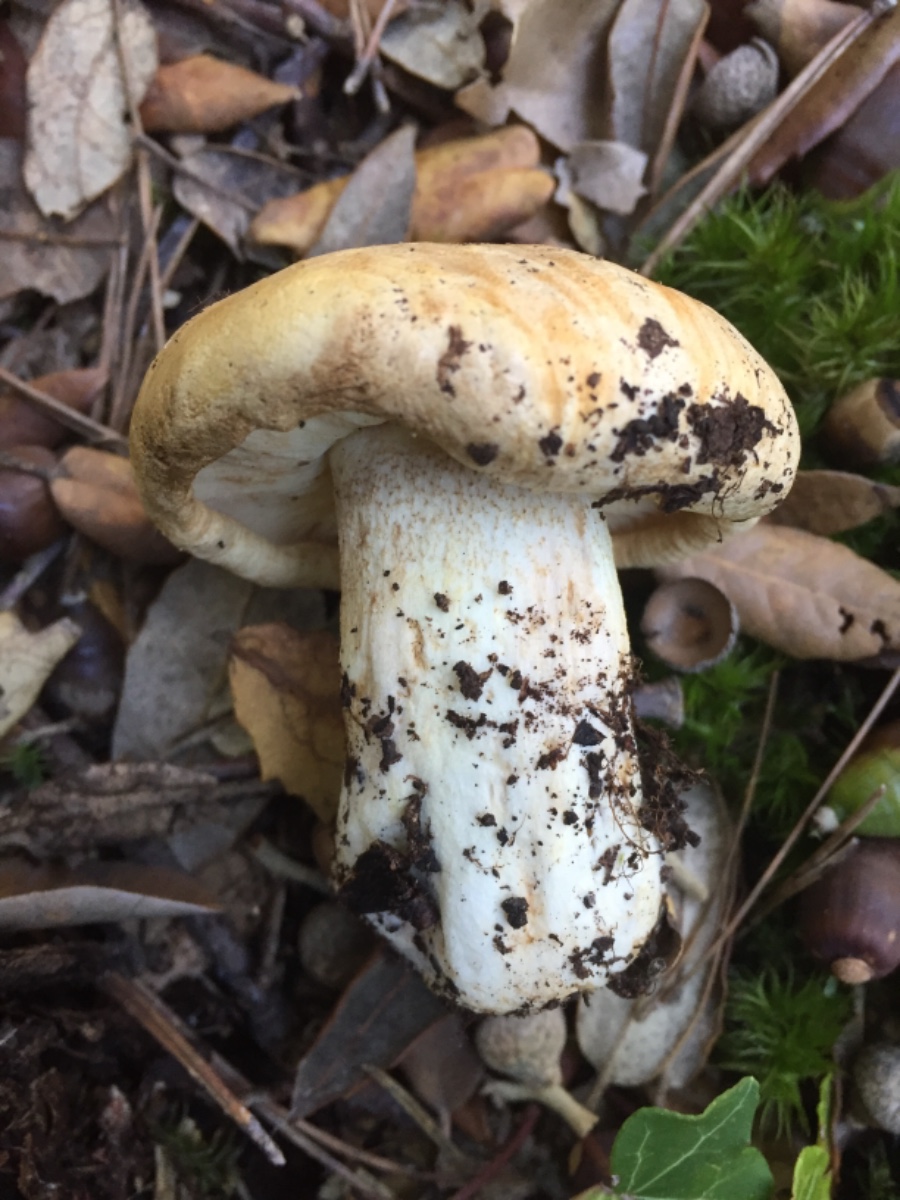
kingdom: Fungi
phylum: Basidiomycota
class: Agaricomycetes
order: Agaricales
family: Tricholomataceae
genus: Tricholoma
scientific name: Tricholoma acerbum
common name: stor ridderhat
